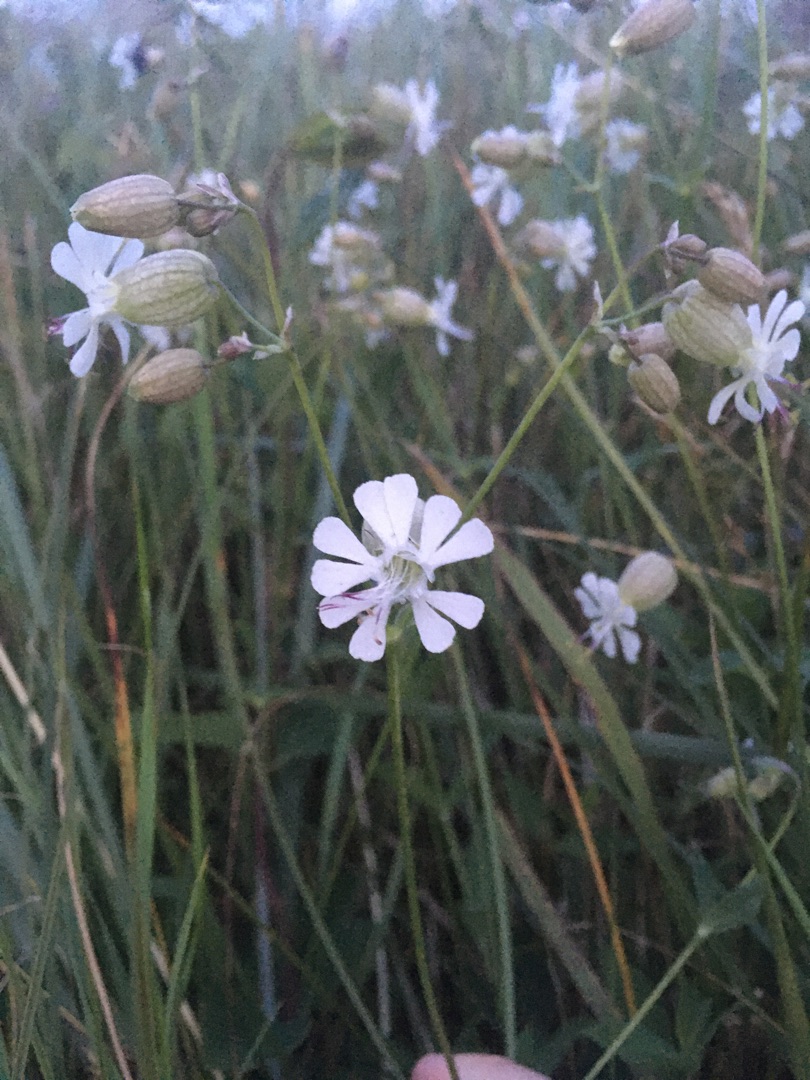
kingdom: Plantae
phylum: Tracheophyta
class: Magnoliopsida
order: Caryophyllales
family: Caryophyllaceae
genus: Silene
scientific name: Silene vulgaris
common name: Blæresmælde
